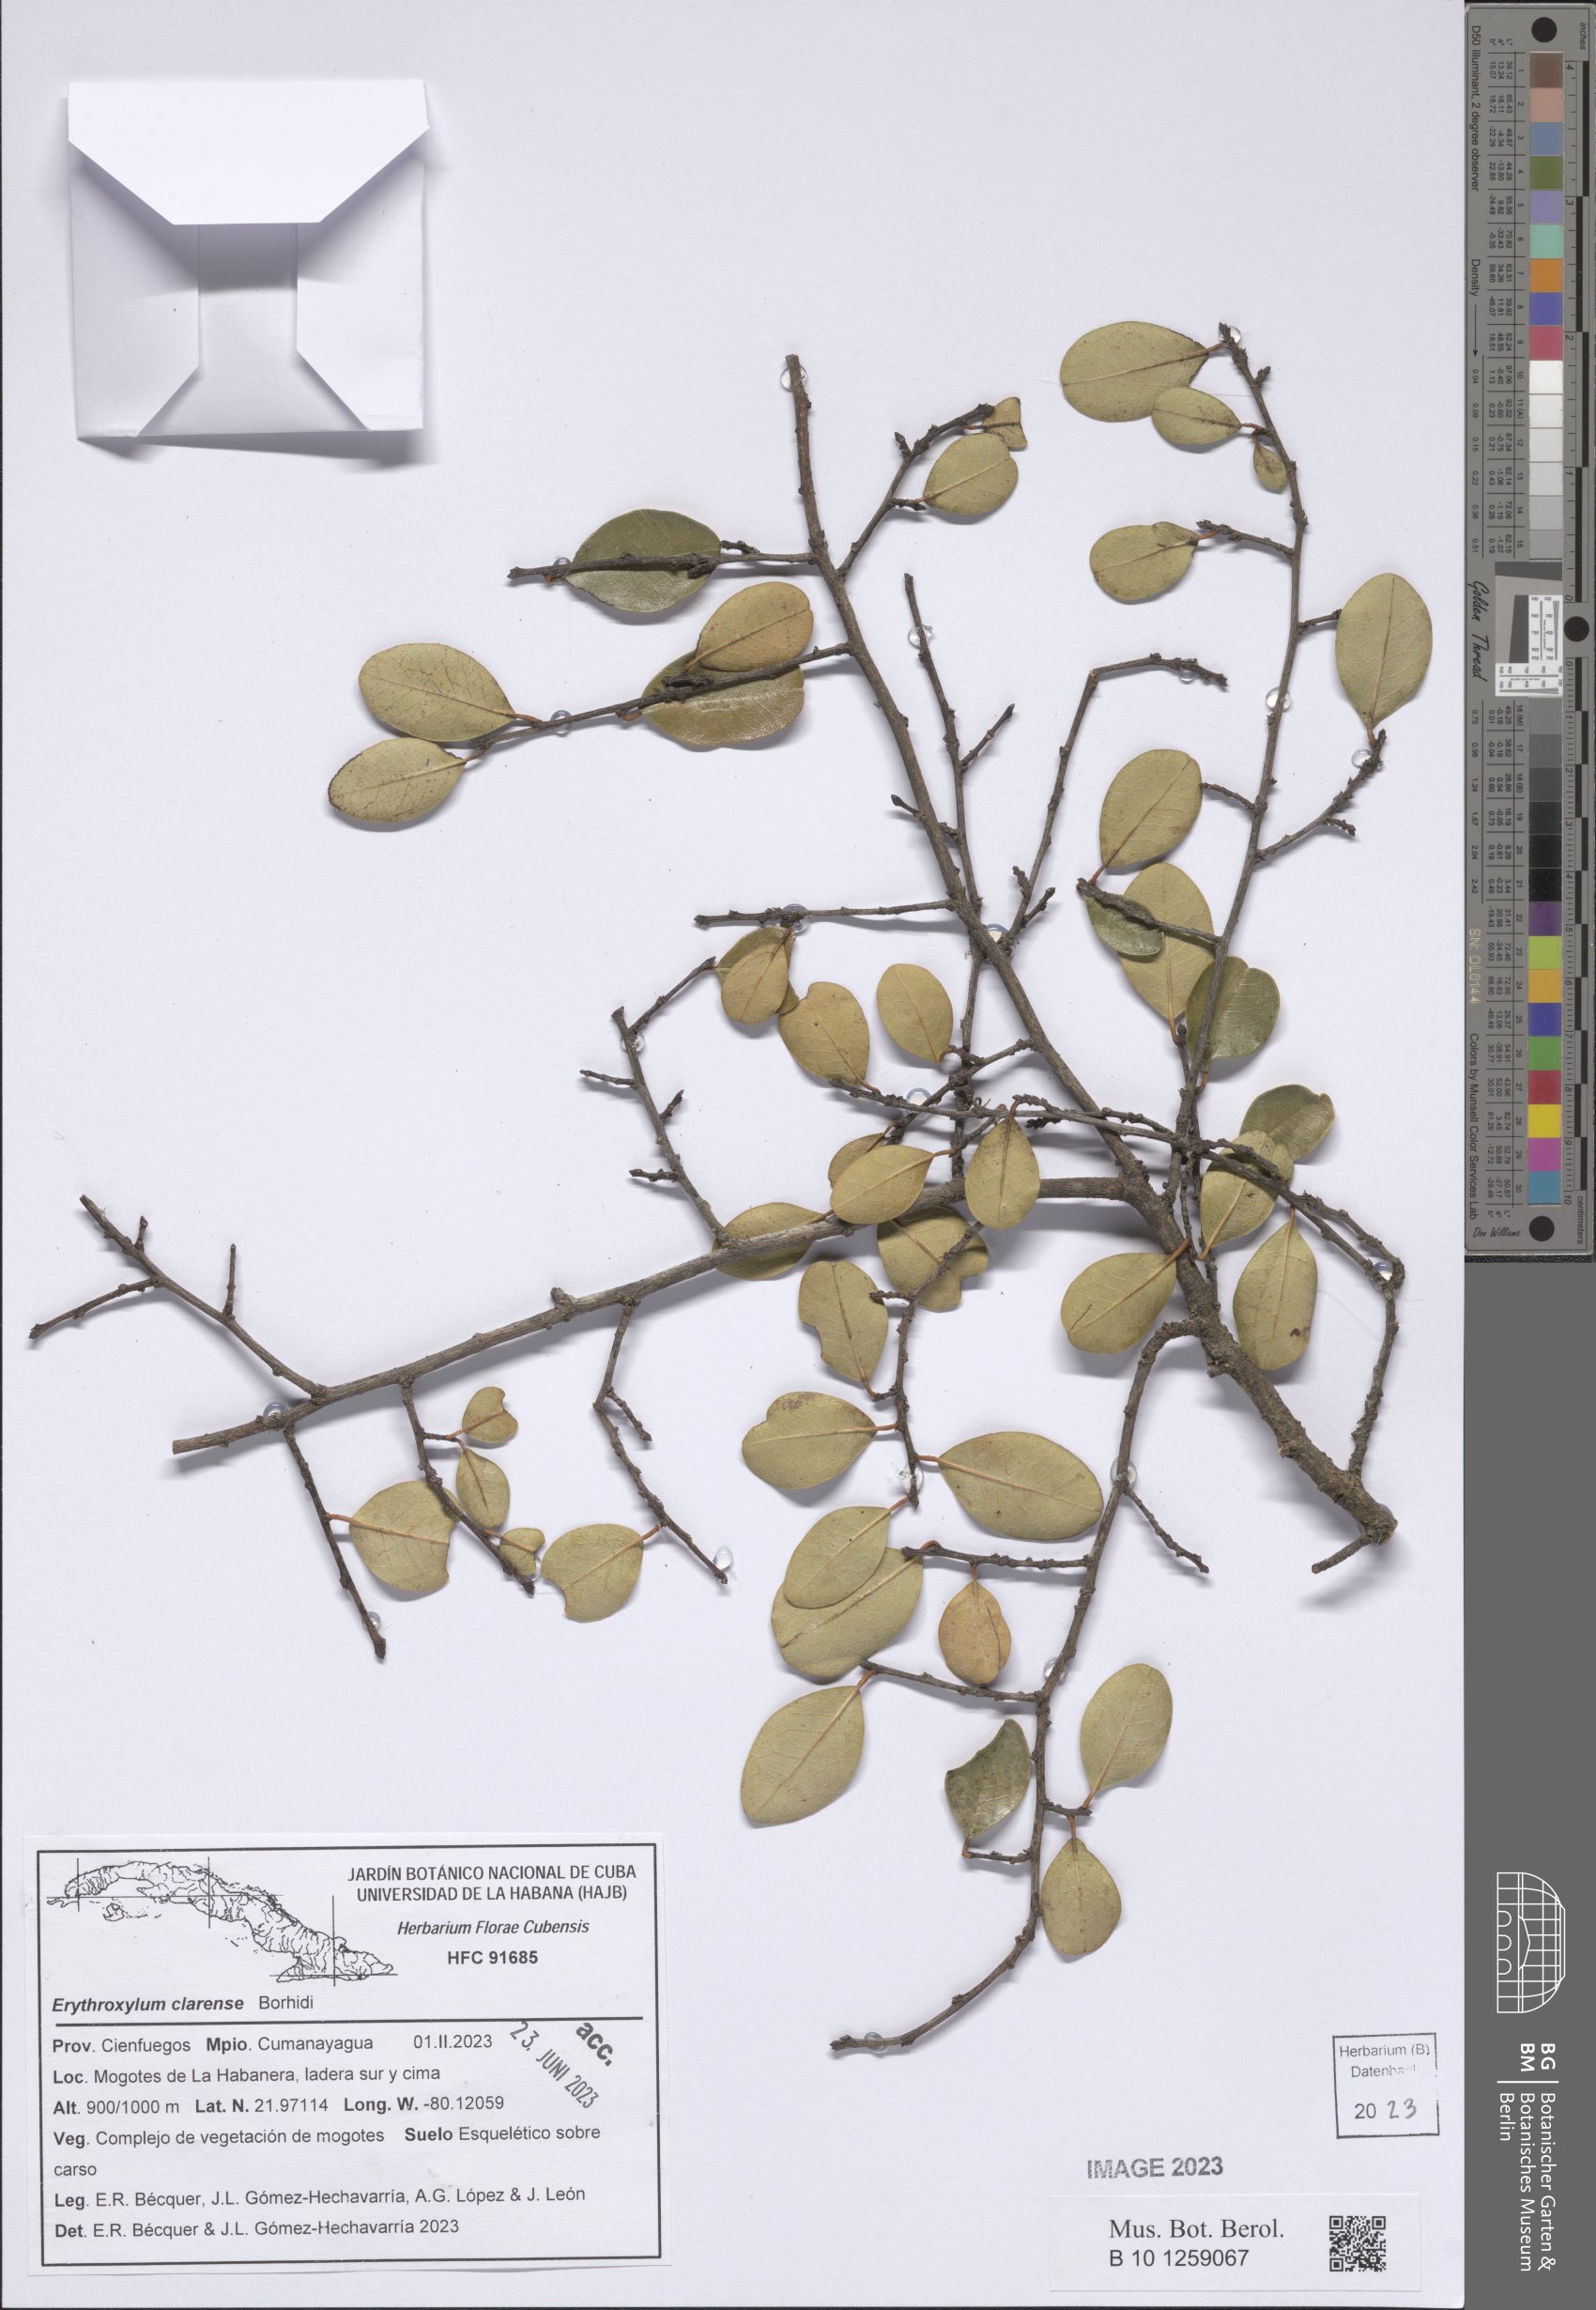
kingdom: Plantae
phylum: Tracheophyta
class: Magnoliopsida
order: Malpighiales
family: Erythroxylaceae
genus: Erythroxylum
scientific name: Erythroxylum clarense
